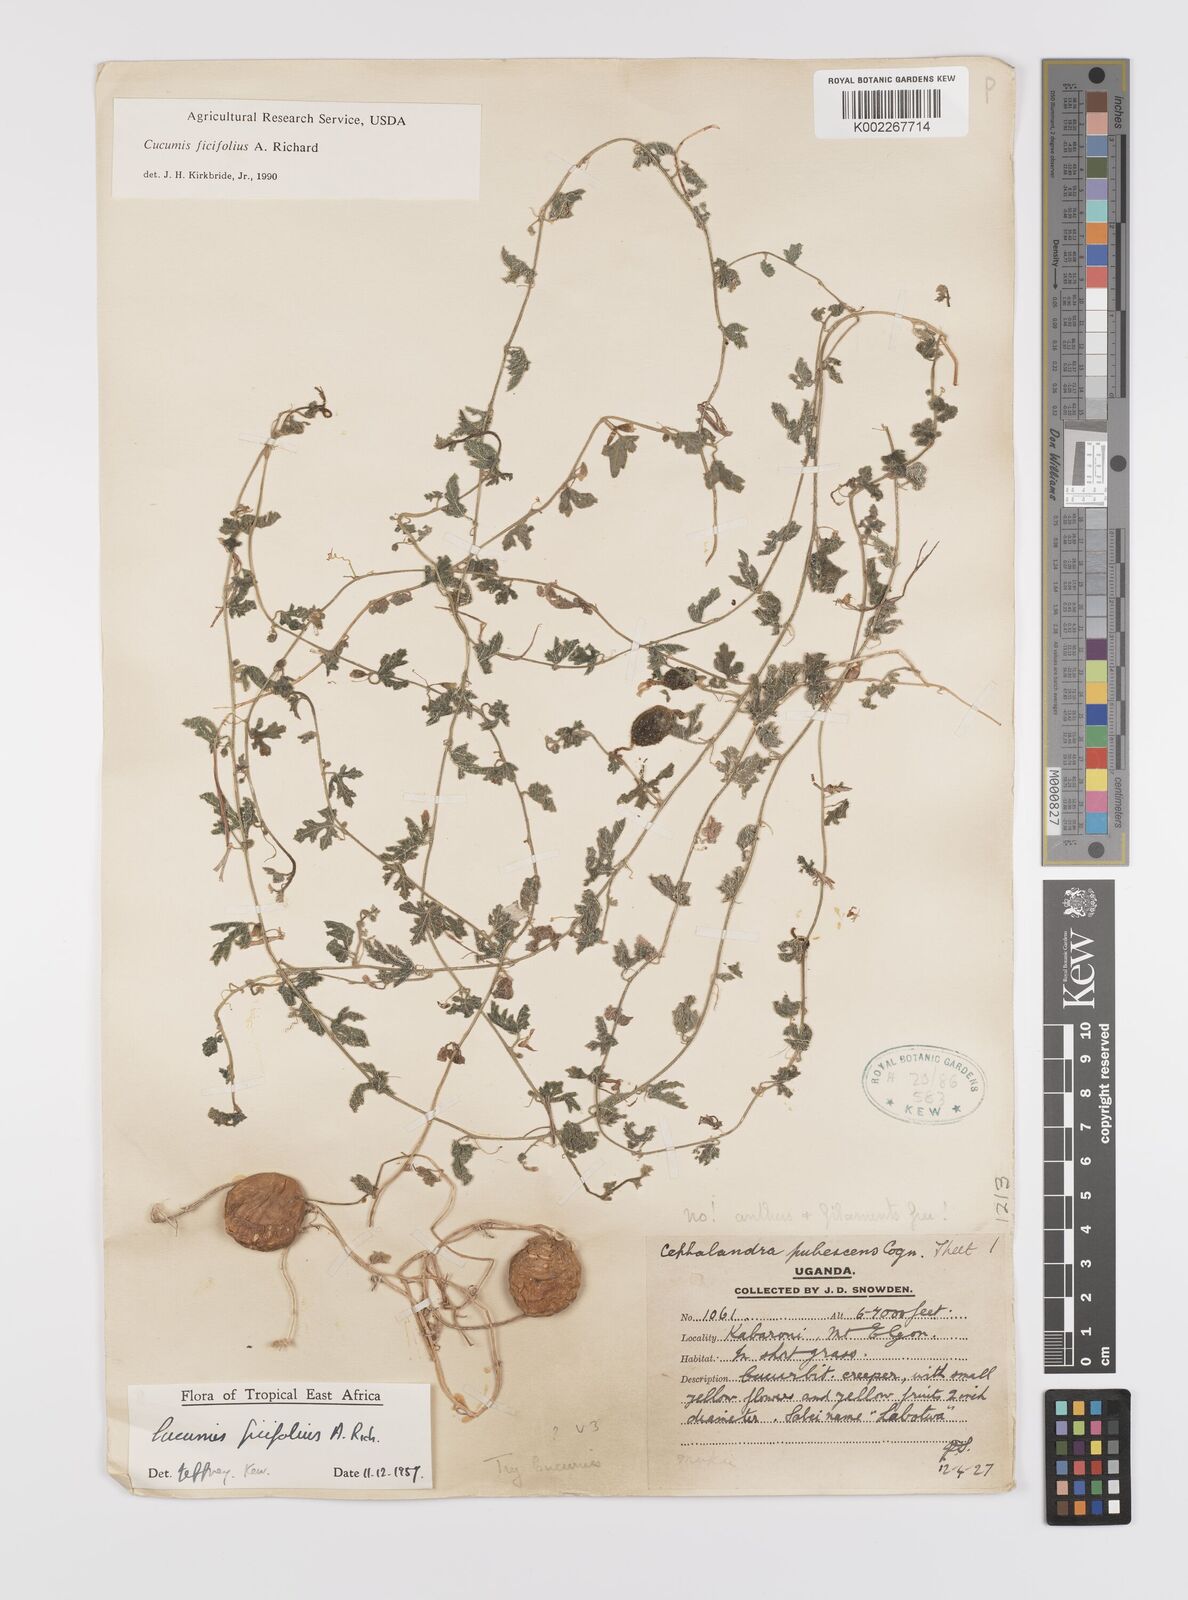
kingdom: Plantae
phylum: Tracheophyta
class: Magnoliopsida
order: Cucurbitales
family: Cucurbitaceae
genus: Cucumis
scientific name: Cucumis ficifolius
